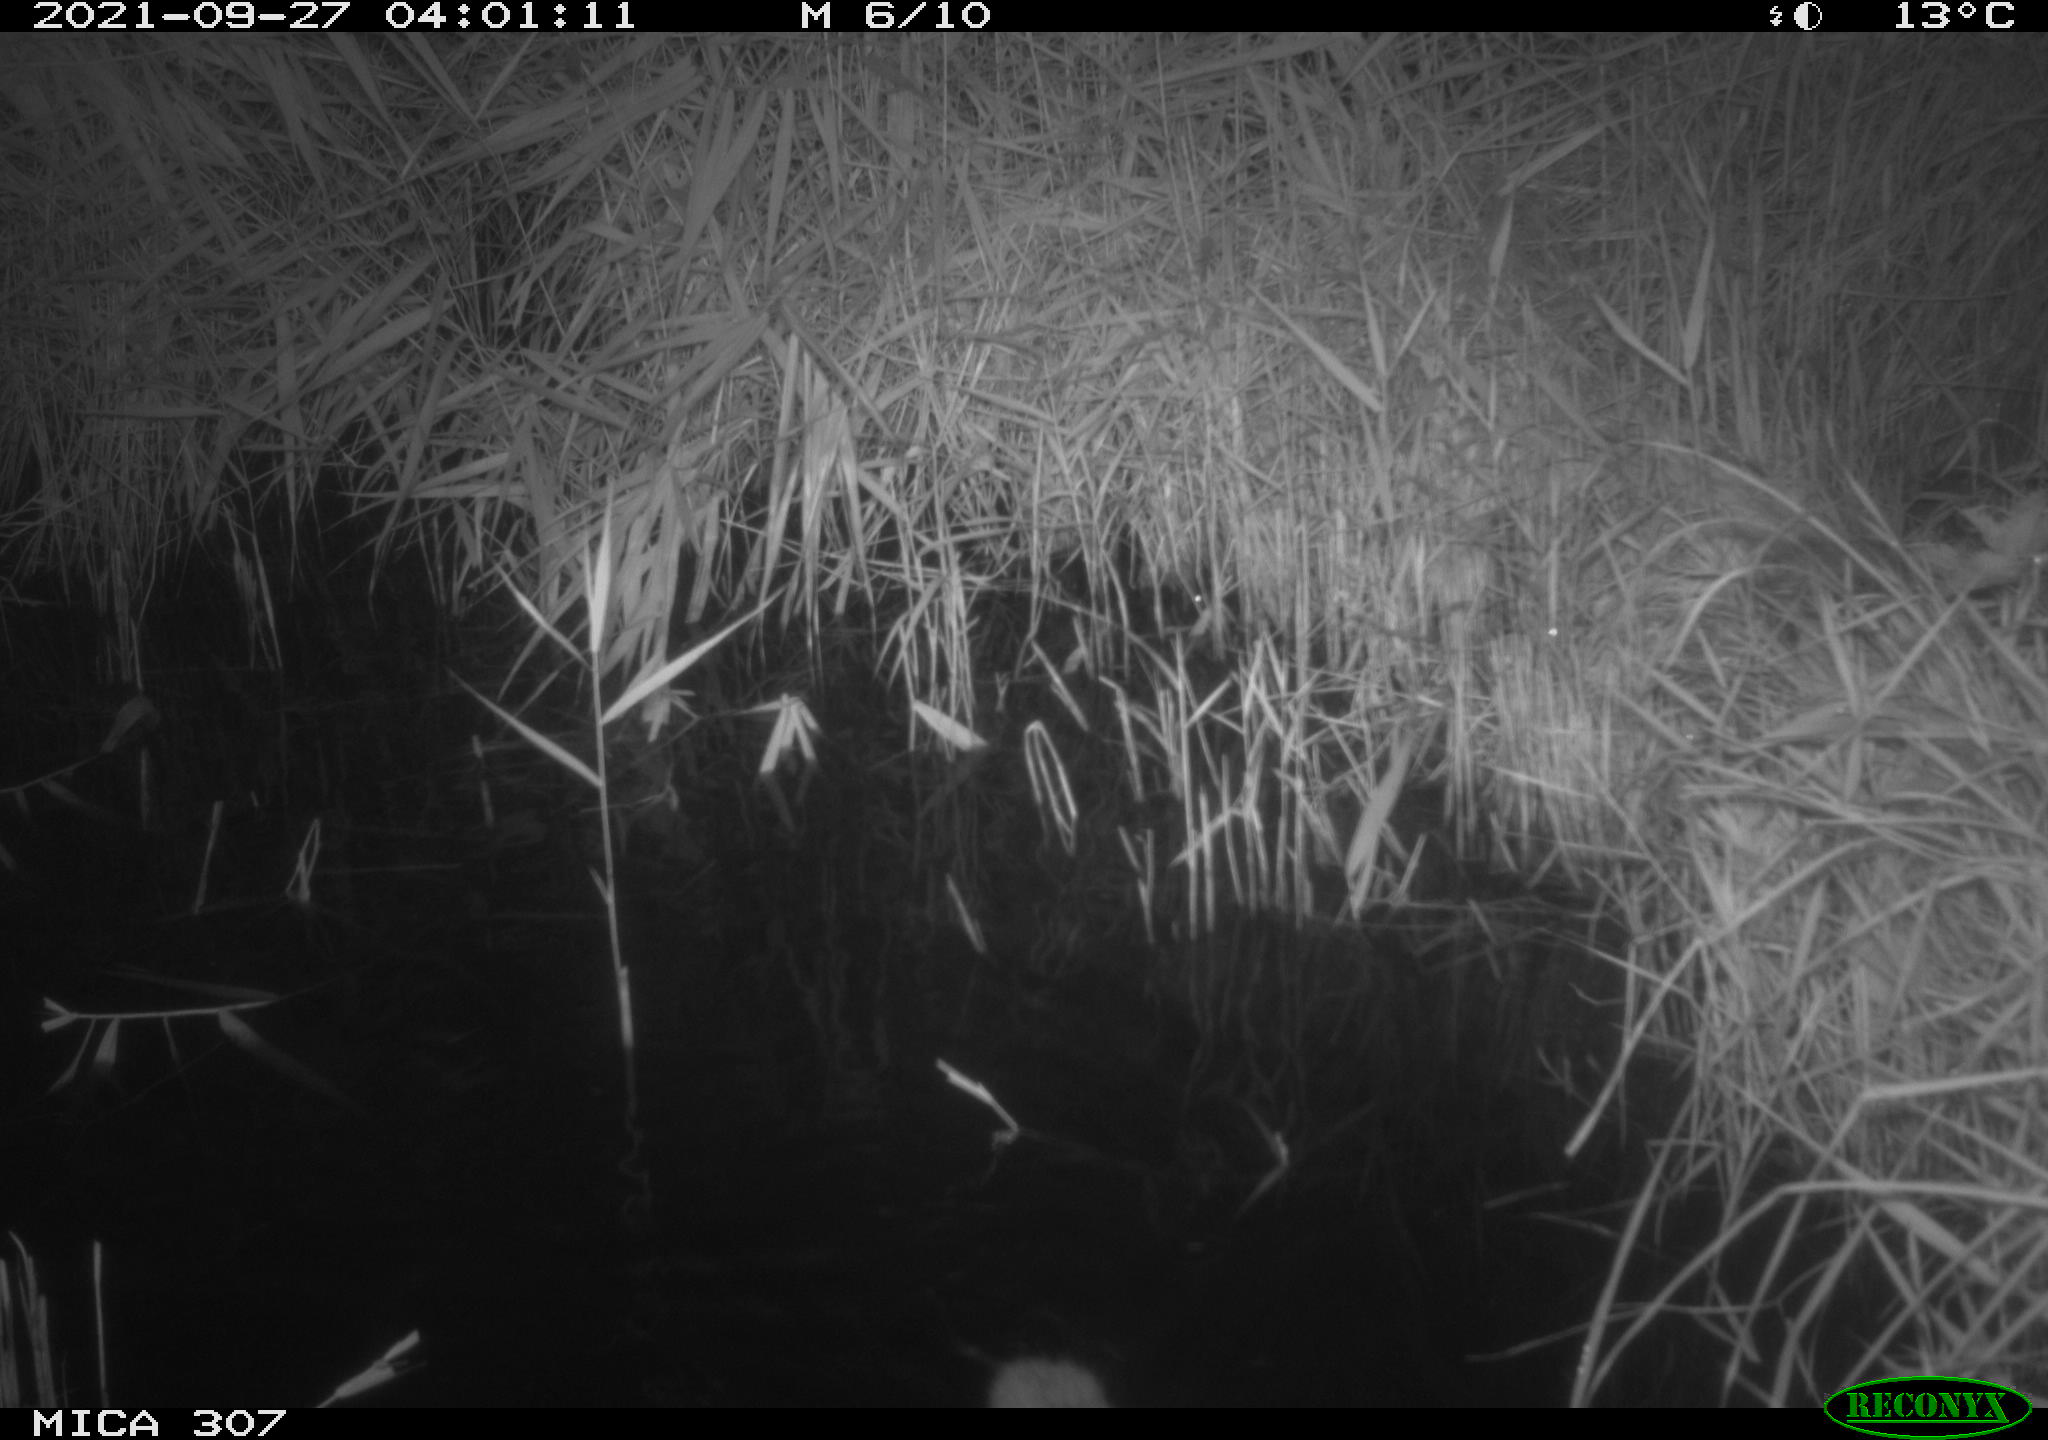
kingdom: Animalia
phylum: Chordata
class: Mammalia
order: Rodentia
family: Muridae
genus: Rattus
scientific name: Rattus norvegicus
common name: Brown rat
